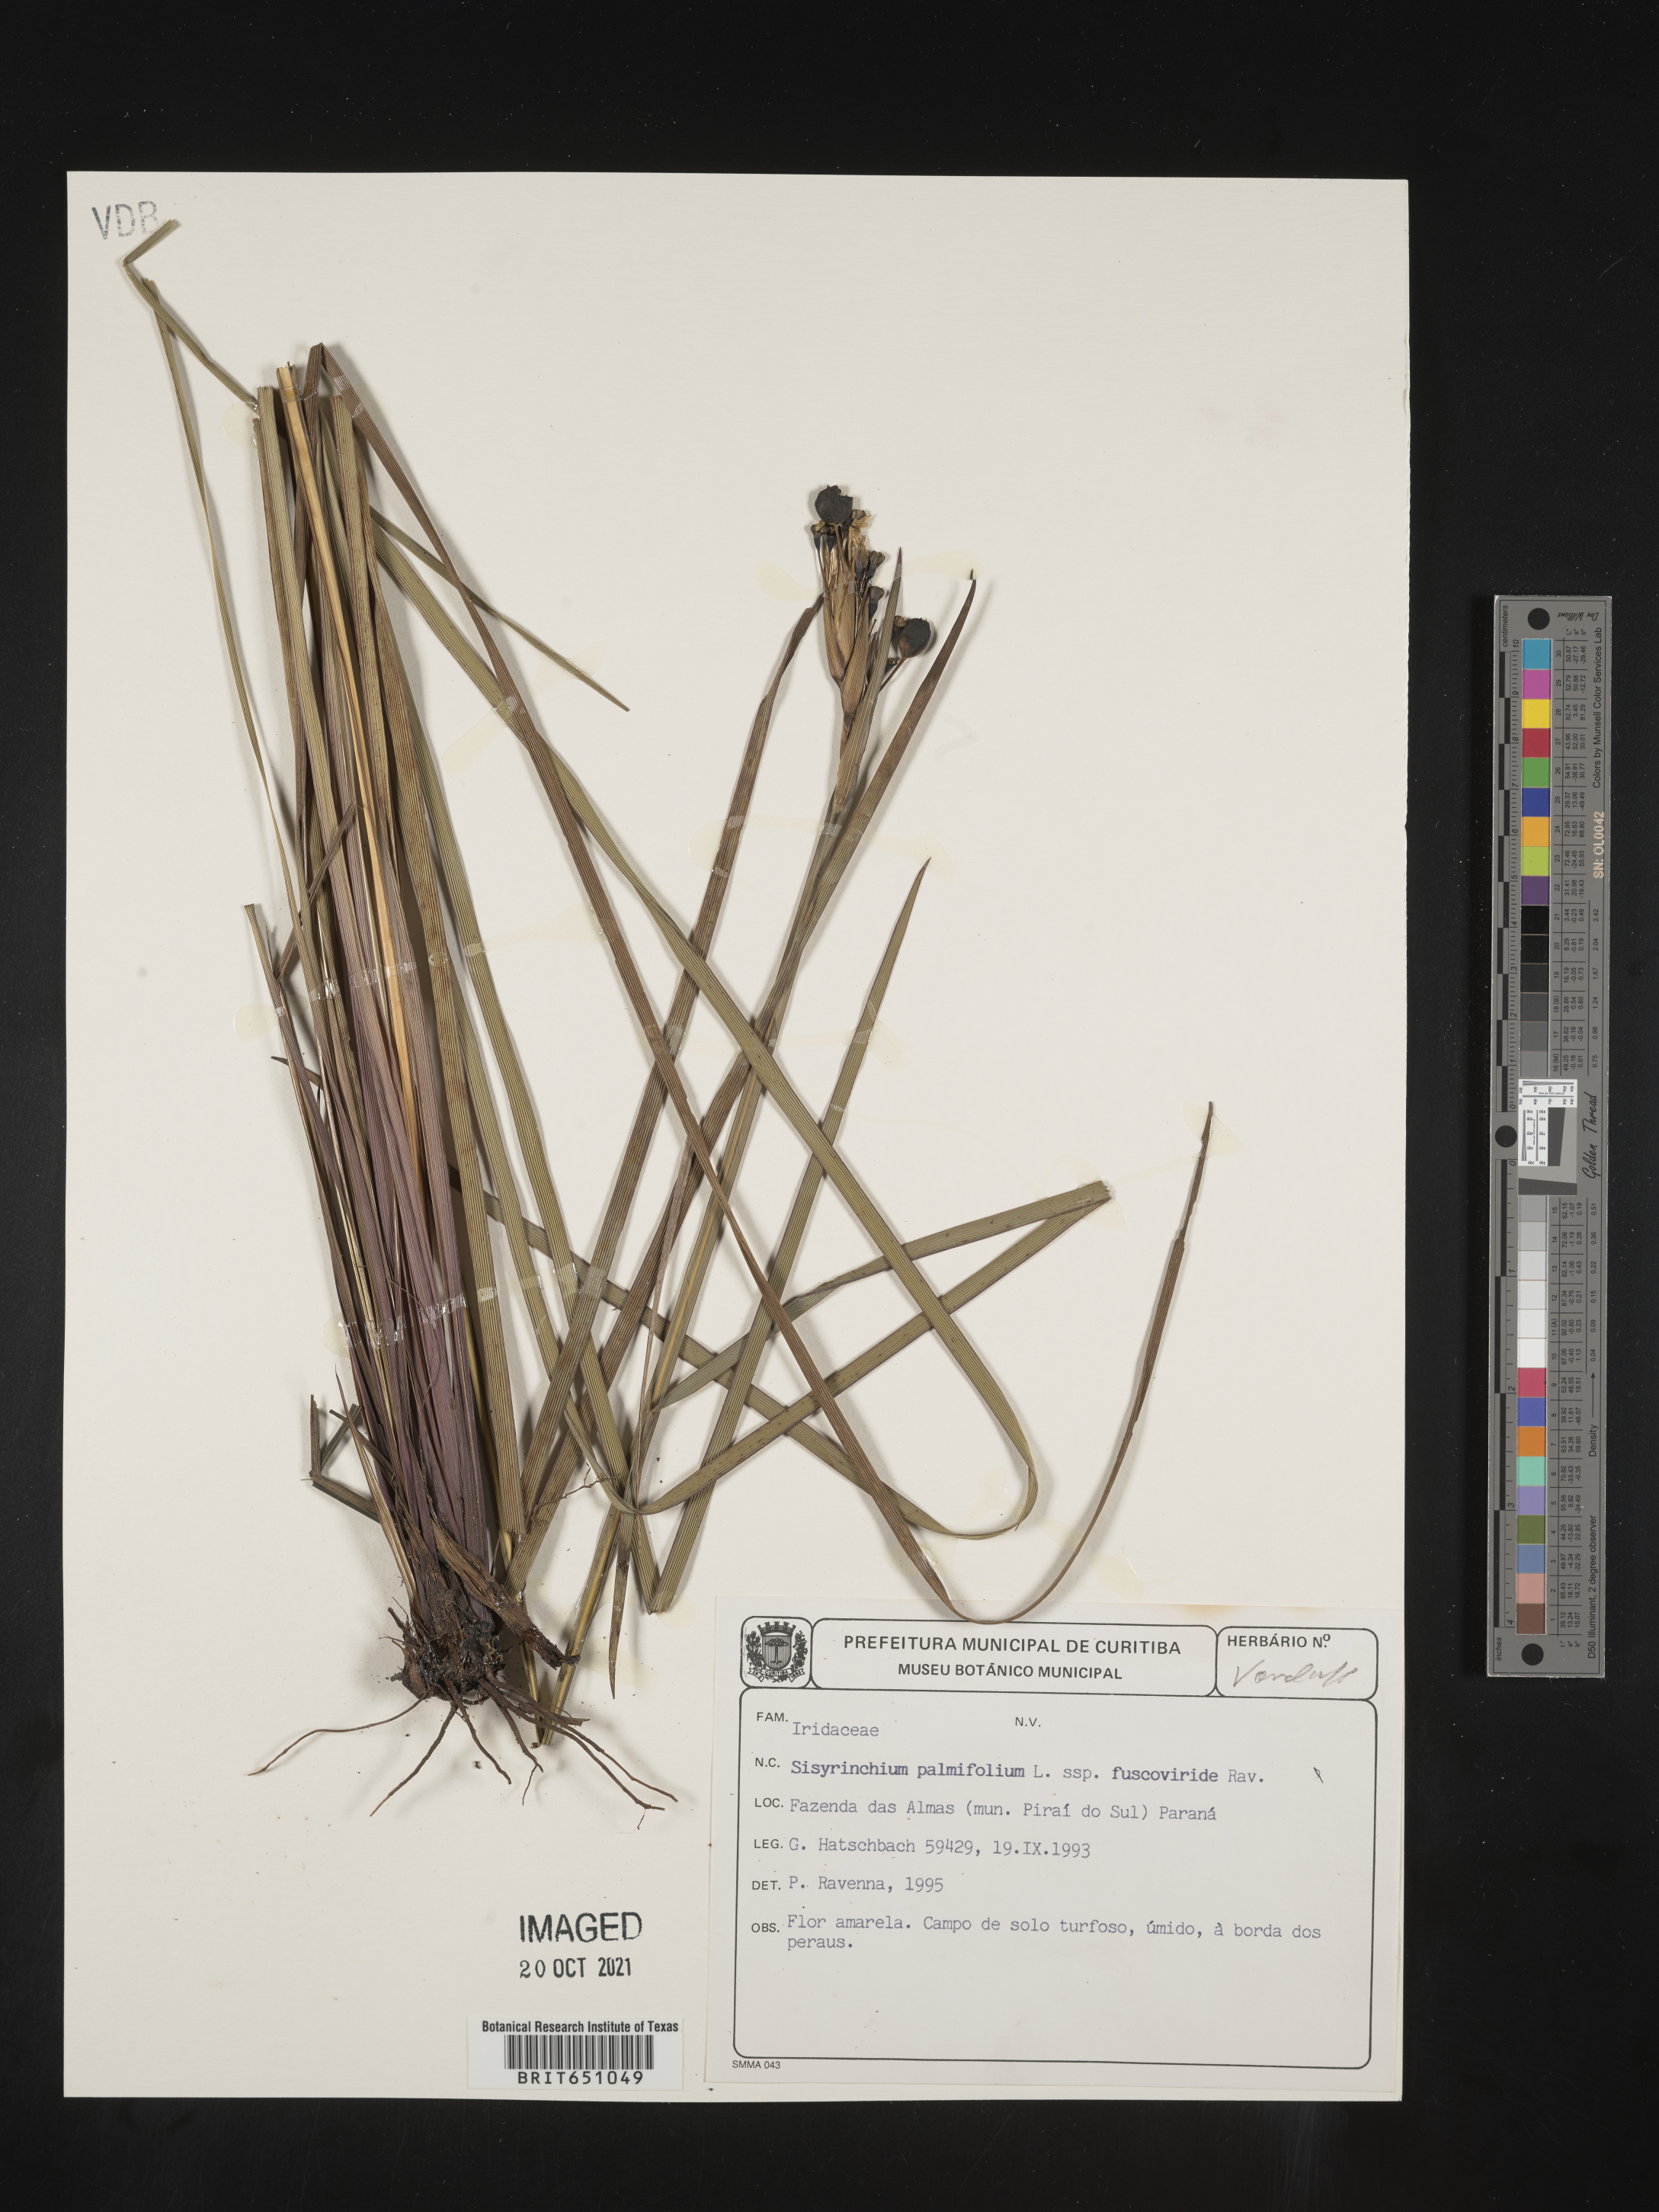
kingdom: Plantae
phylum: Tracheophyta
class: Liliopsida
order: Asparagales
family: Iridaceae
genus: Sisyrinchium
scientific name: Sisyrinchium
